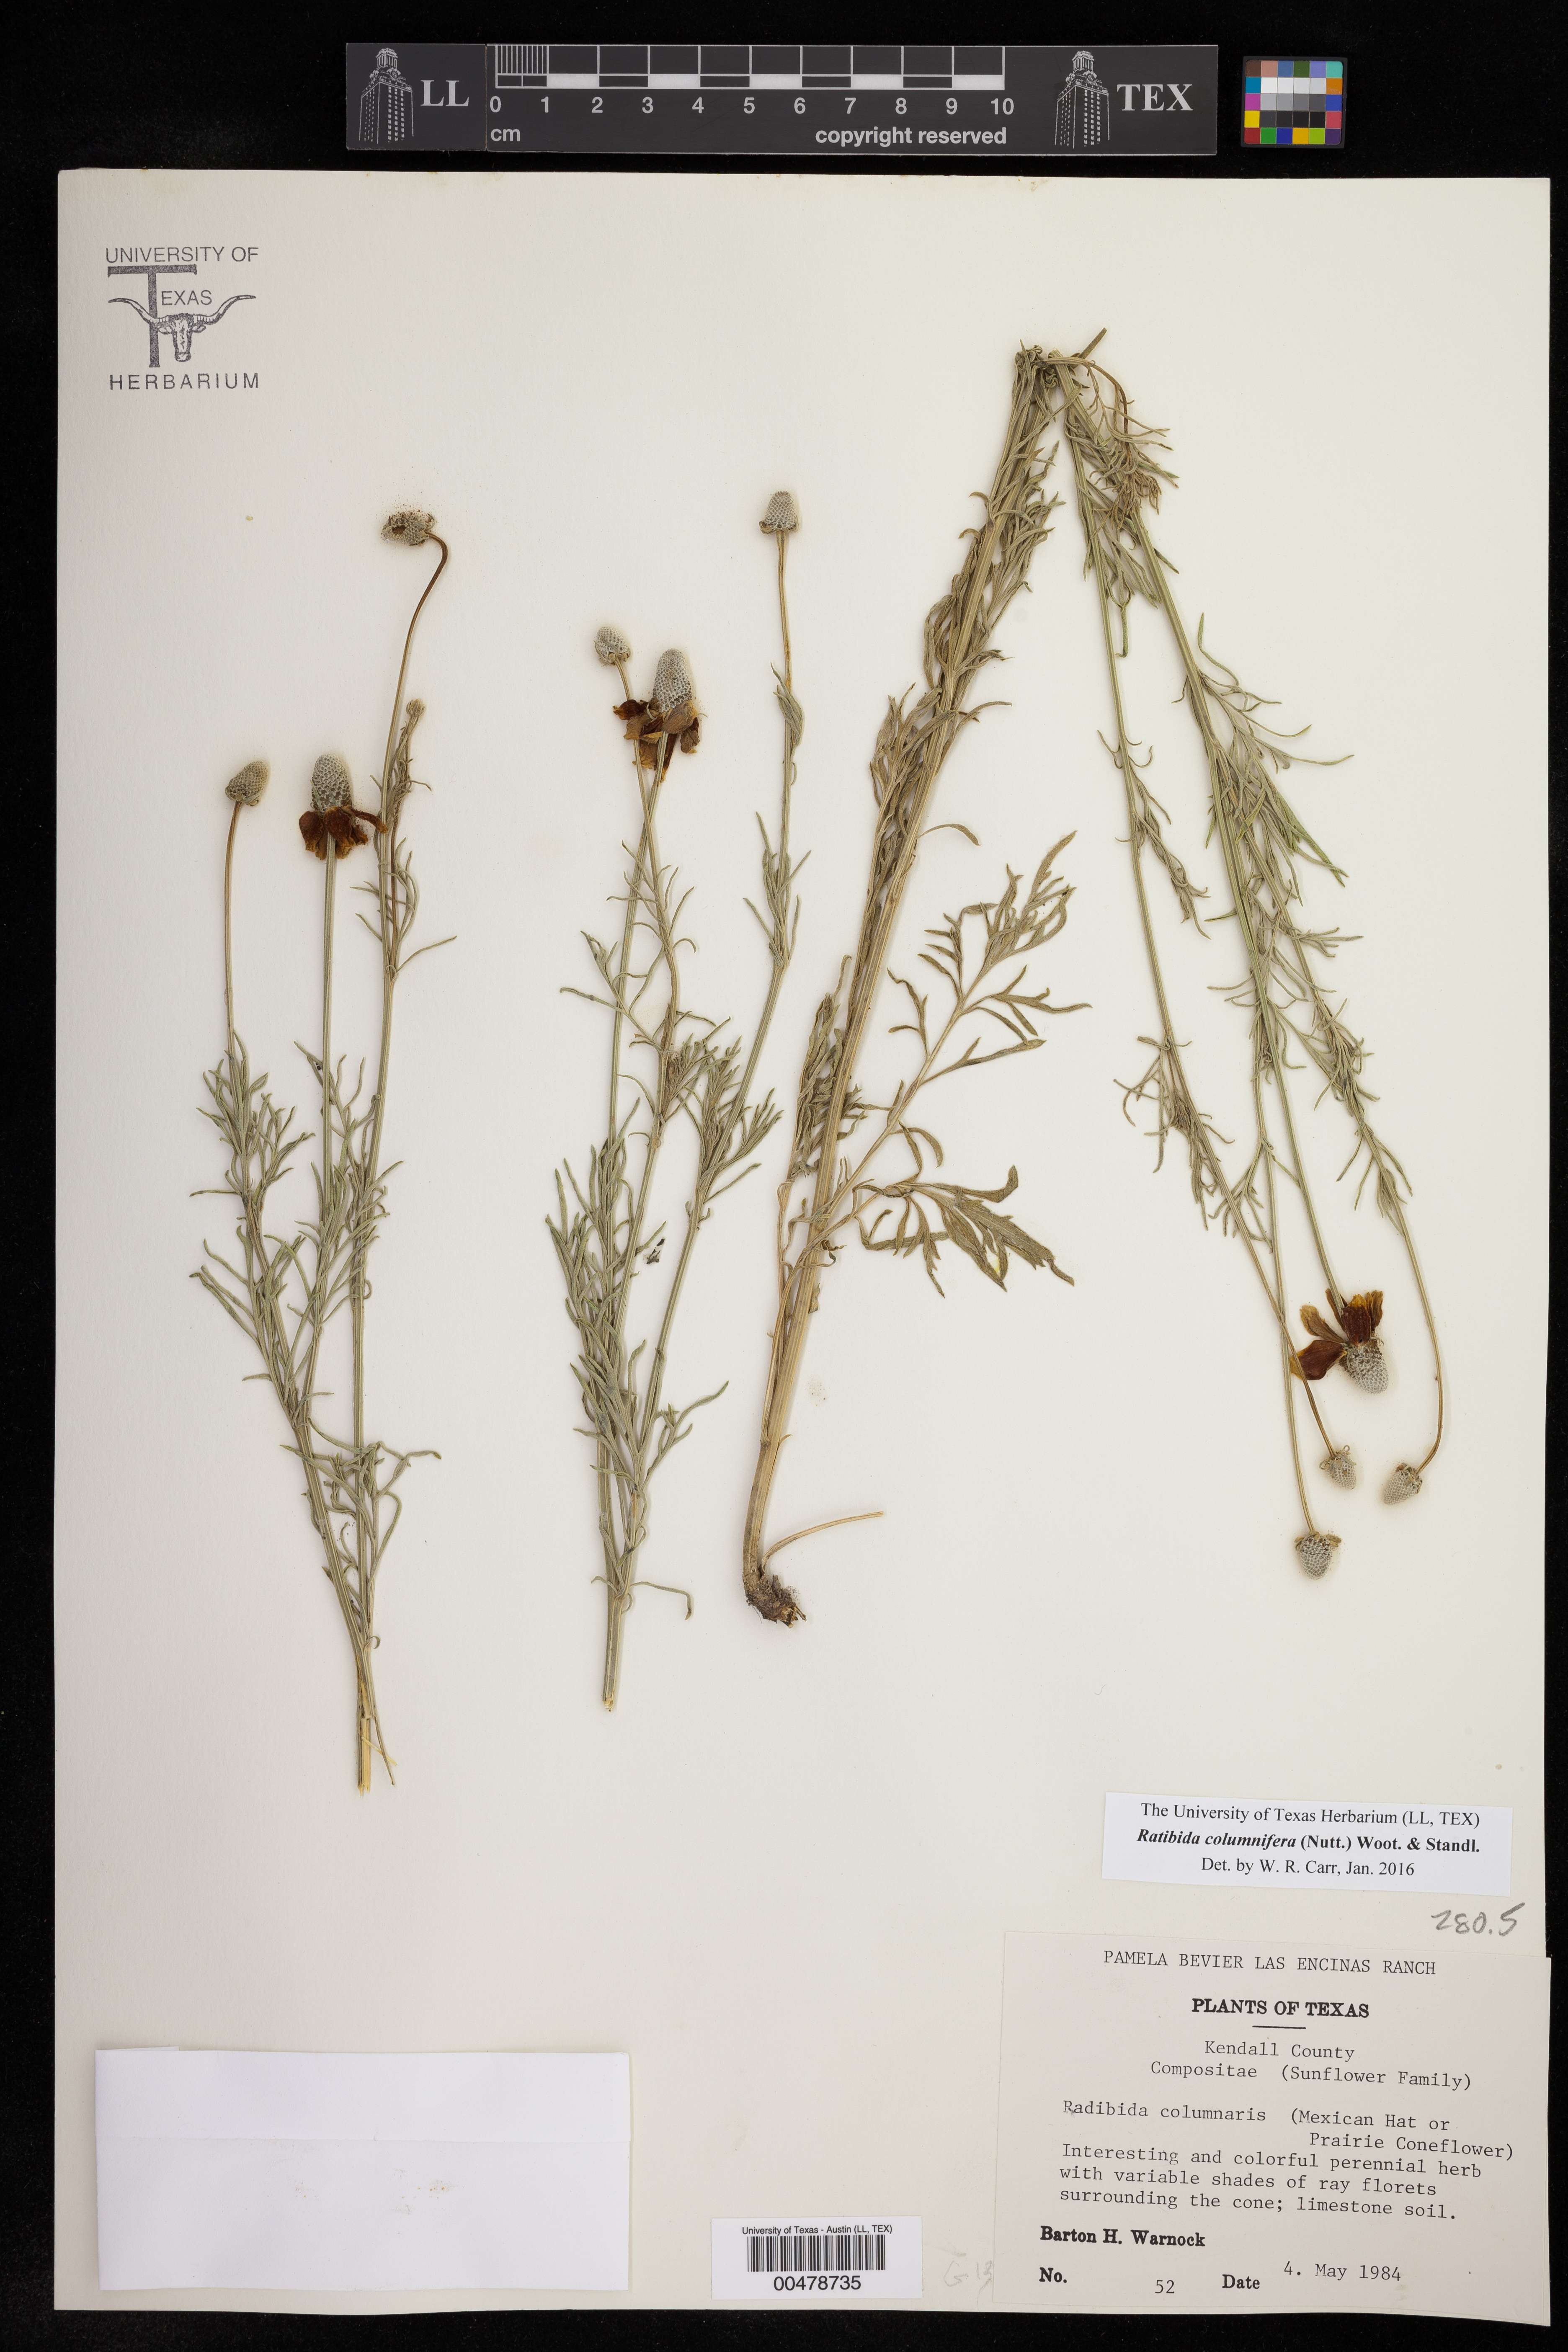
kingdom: Plantae
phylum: Tracheophyta
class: Magnoliopsida
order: Asterales
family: Asteraceae
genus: Ratibida
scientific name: Ratibida columnifera
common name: Prairie coneflower
